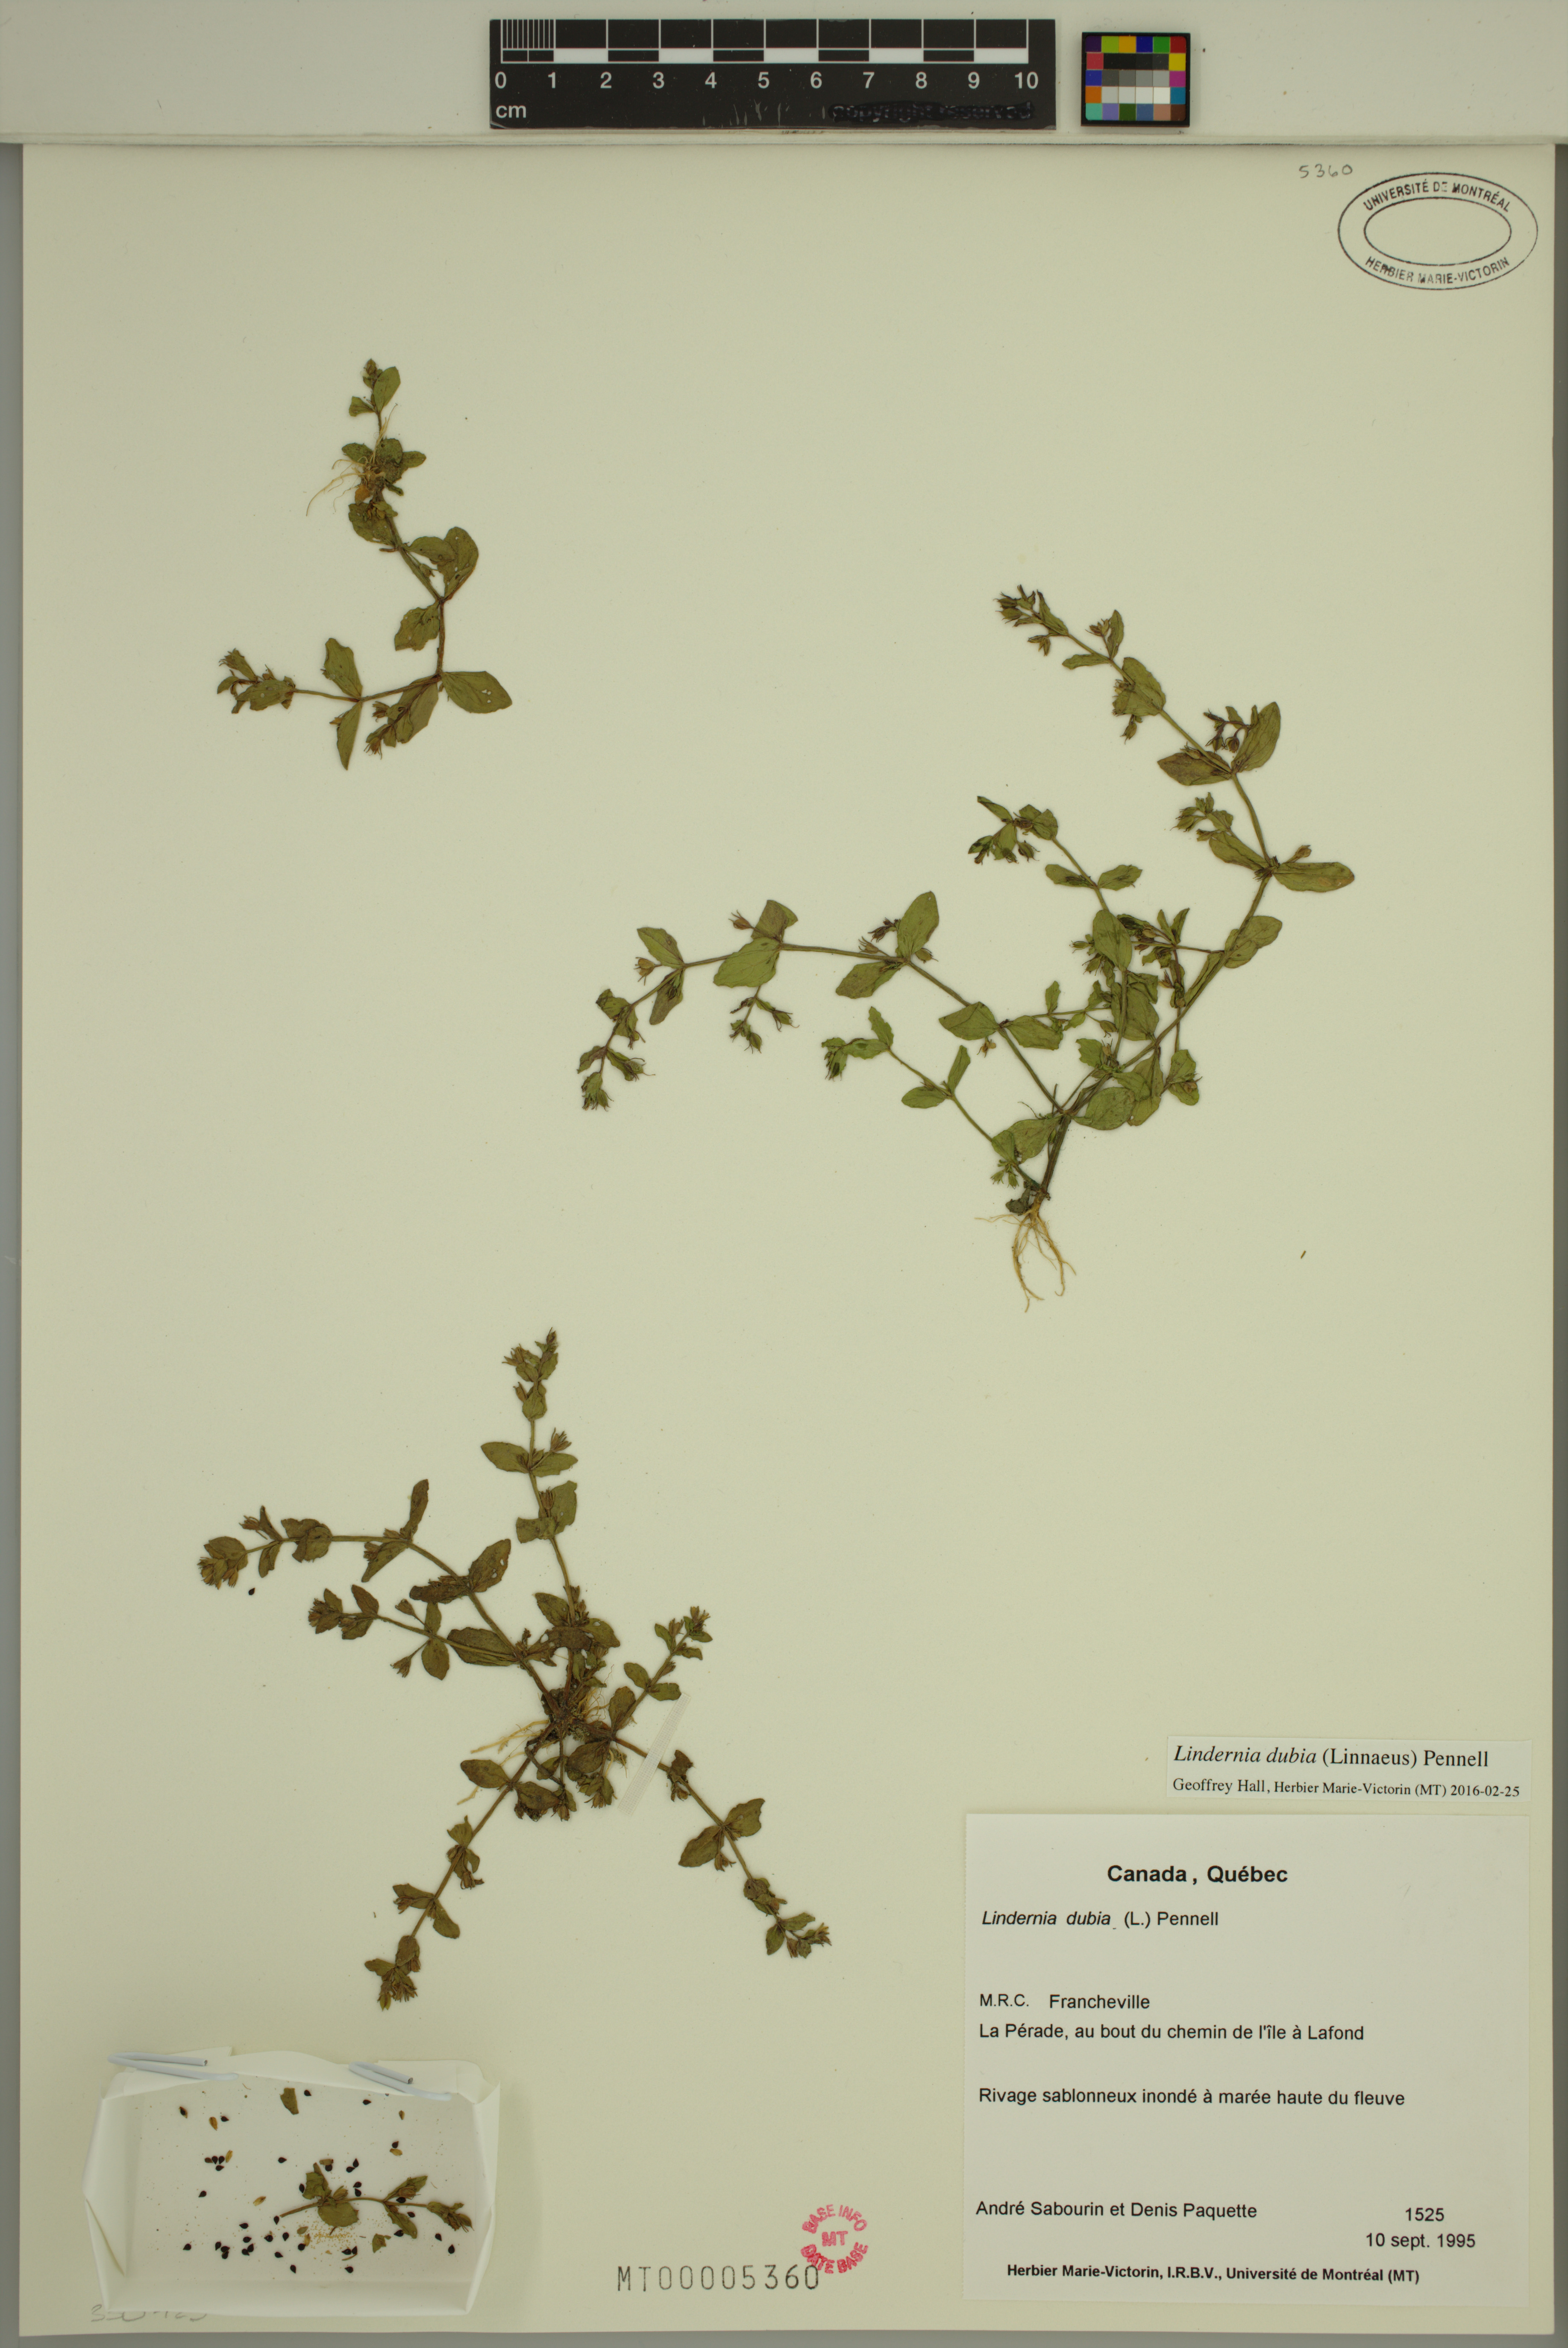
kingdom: Plantae
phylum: Tracheophyta
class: Magnoliopsida
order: Lamiales
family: Linderniaceae
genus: Lindernia
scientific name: Lindernia dubia
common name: Annual false pimpernel
